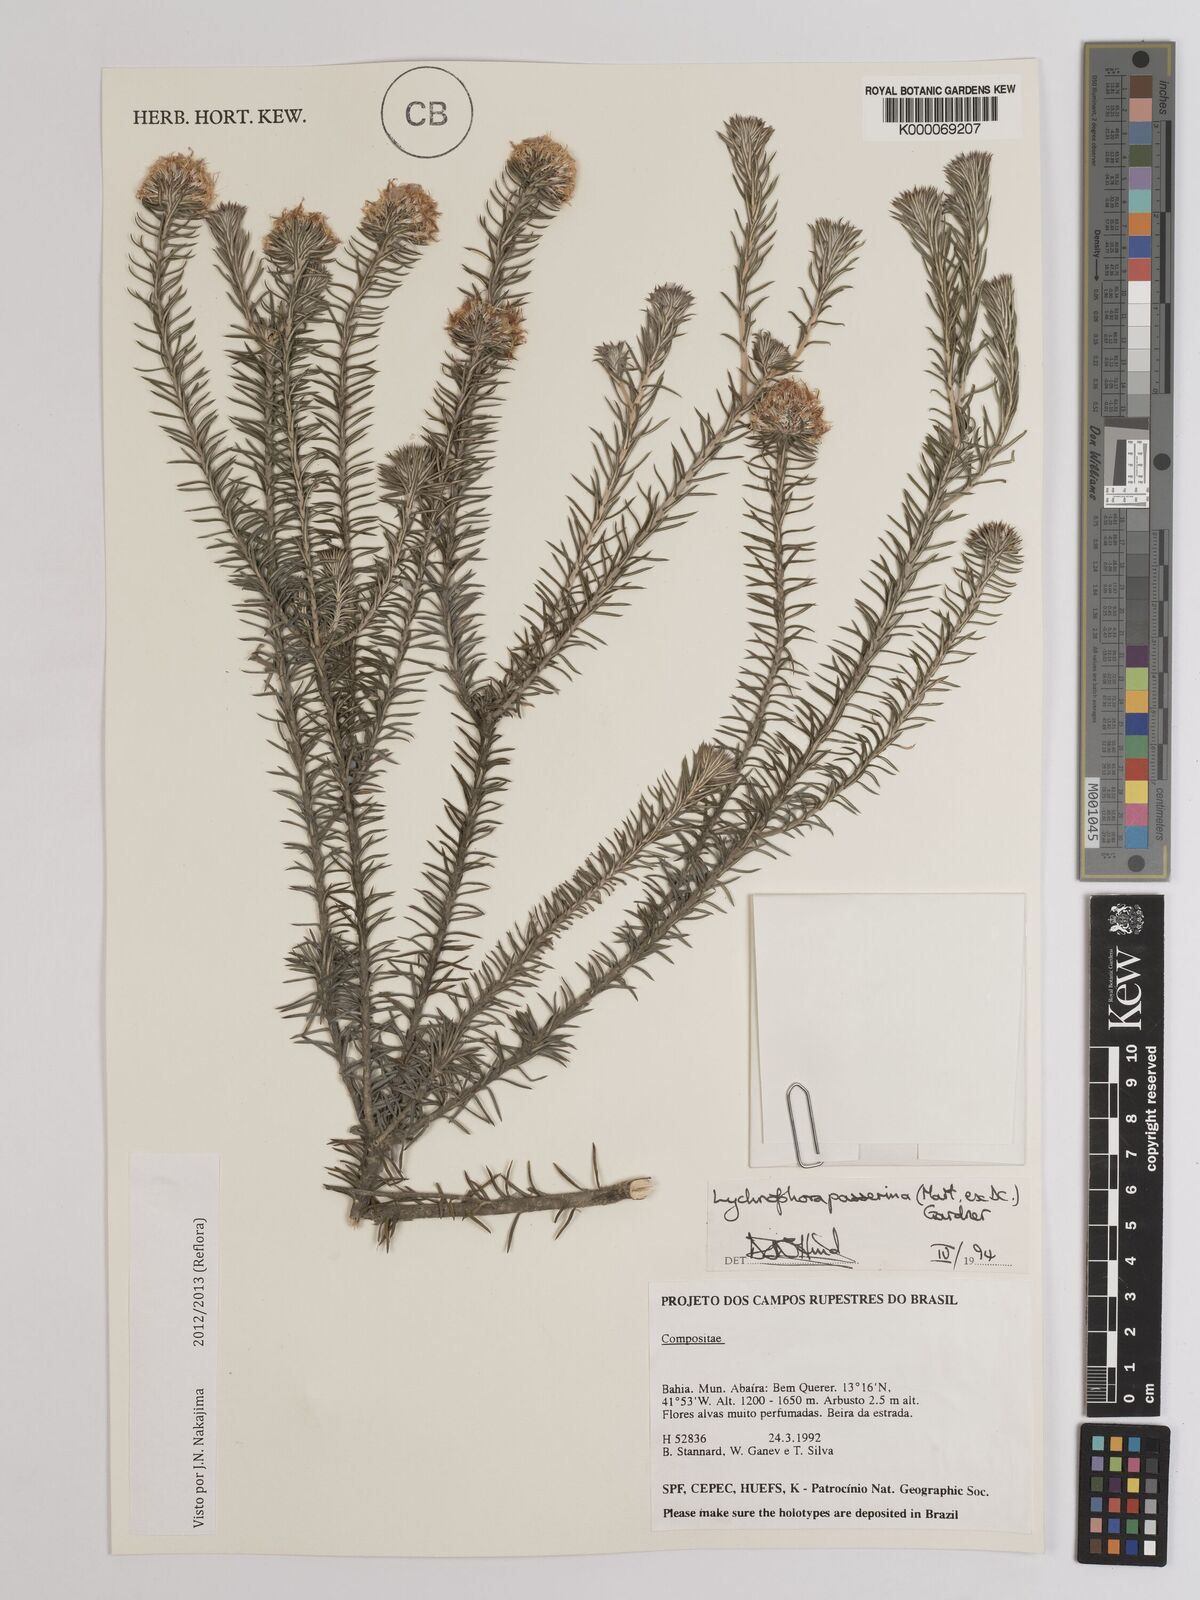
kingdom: Plantae
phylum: Tracheophyta
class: Magnoliopsida
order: Asterales
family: Asteraceae
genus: Lychnophora
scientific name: Lychnophora passerina
